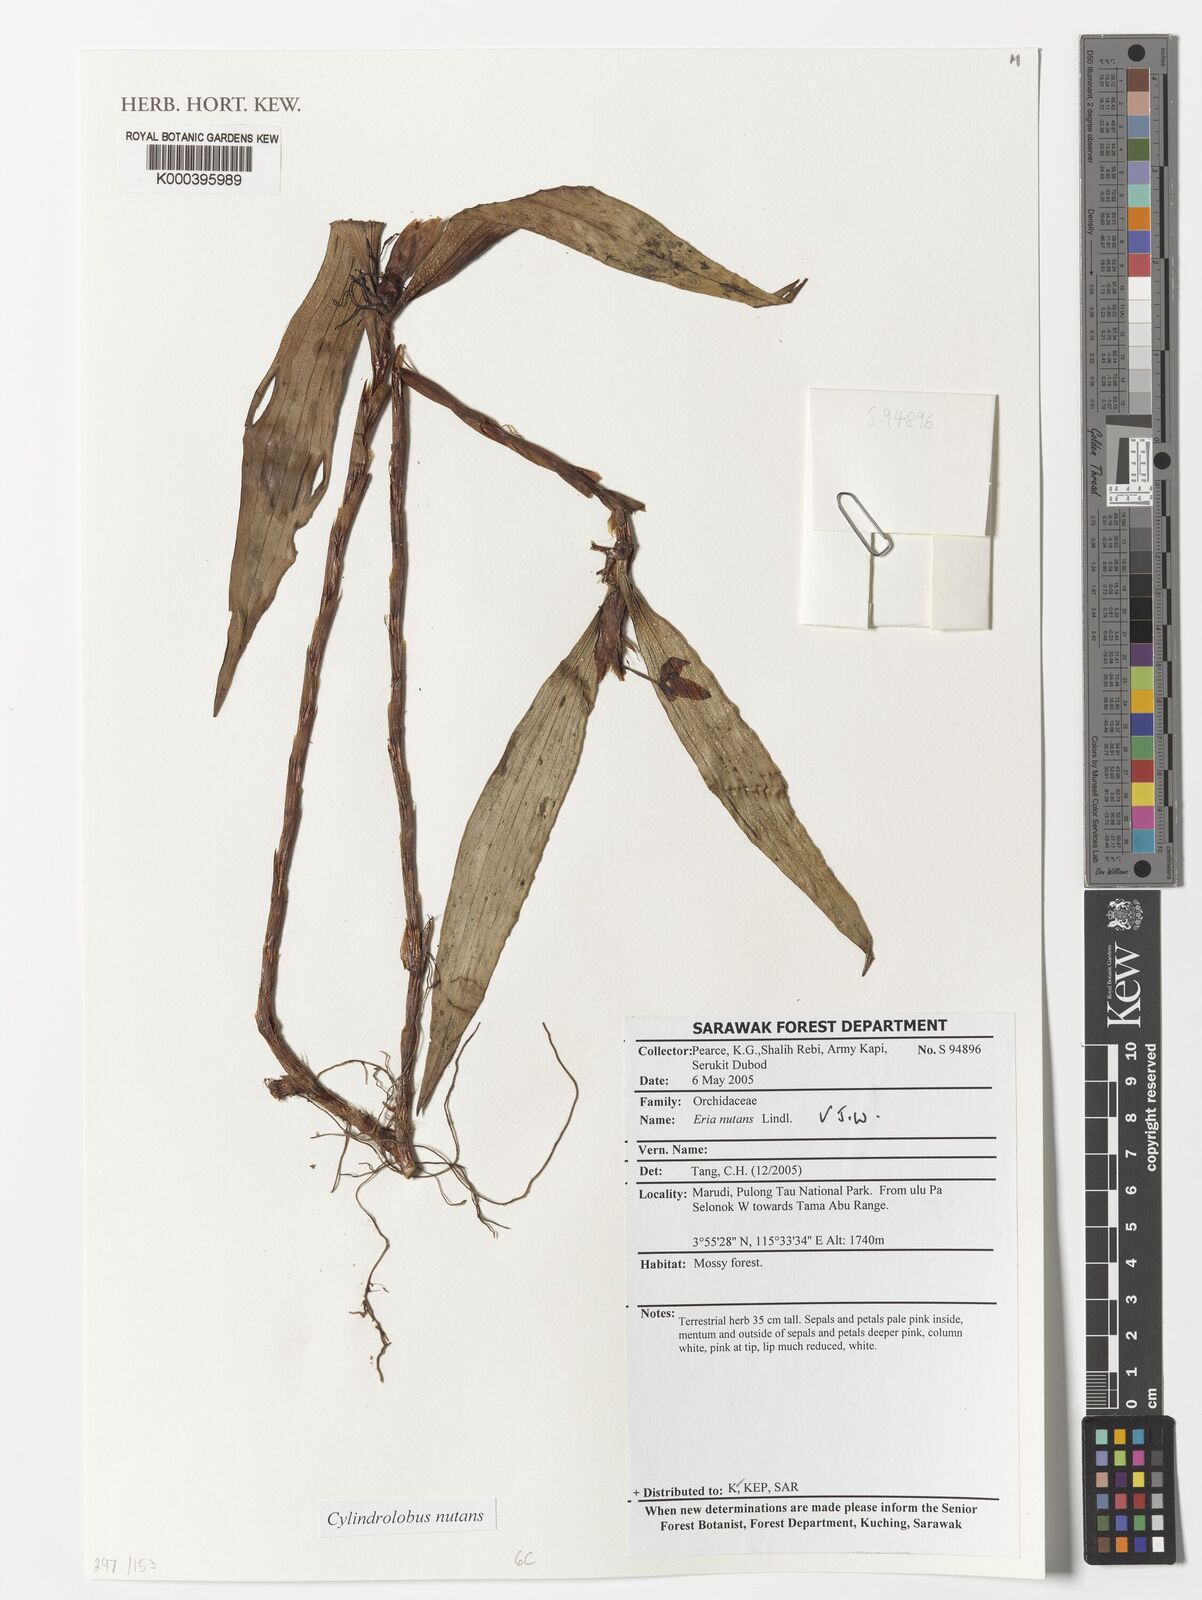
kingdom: Plantae
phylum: Tracheophyta
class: Liliopsida
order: Asparagales
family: Orchidaceae
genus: Cylindrolobus
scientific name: Cylindrolobus nutans
